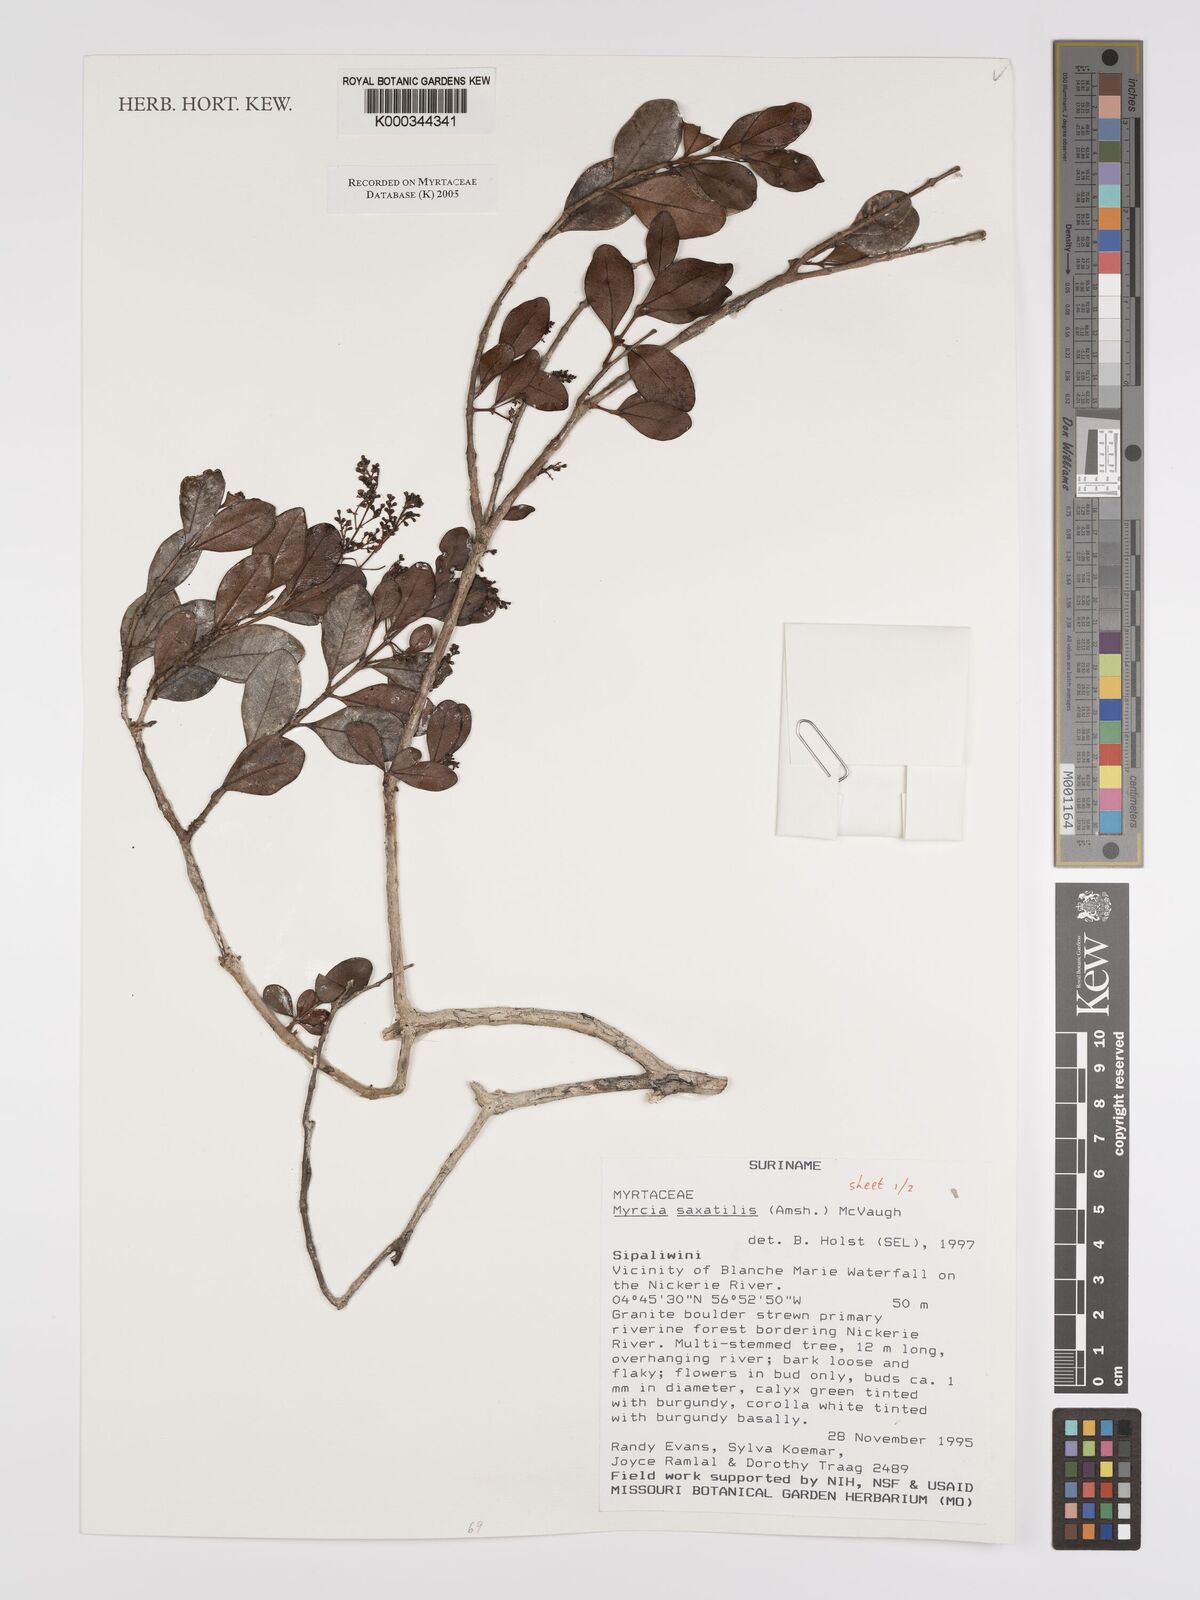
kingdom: Plantae
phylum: Tracheophyta
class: Magnoliopsida
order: Myrtales
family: Myrtaceae
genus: Myrcia
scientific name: Myrcia saxatilis
